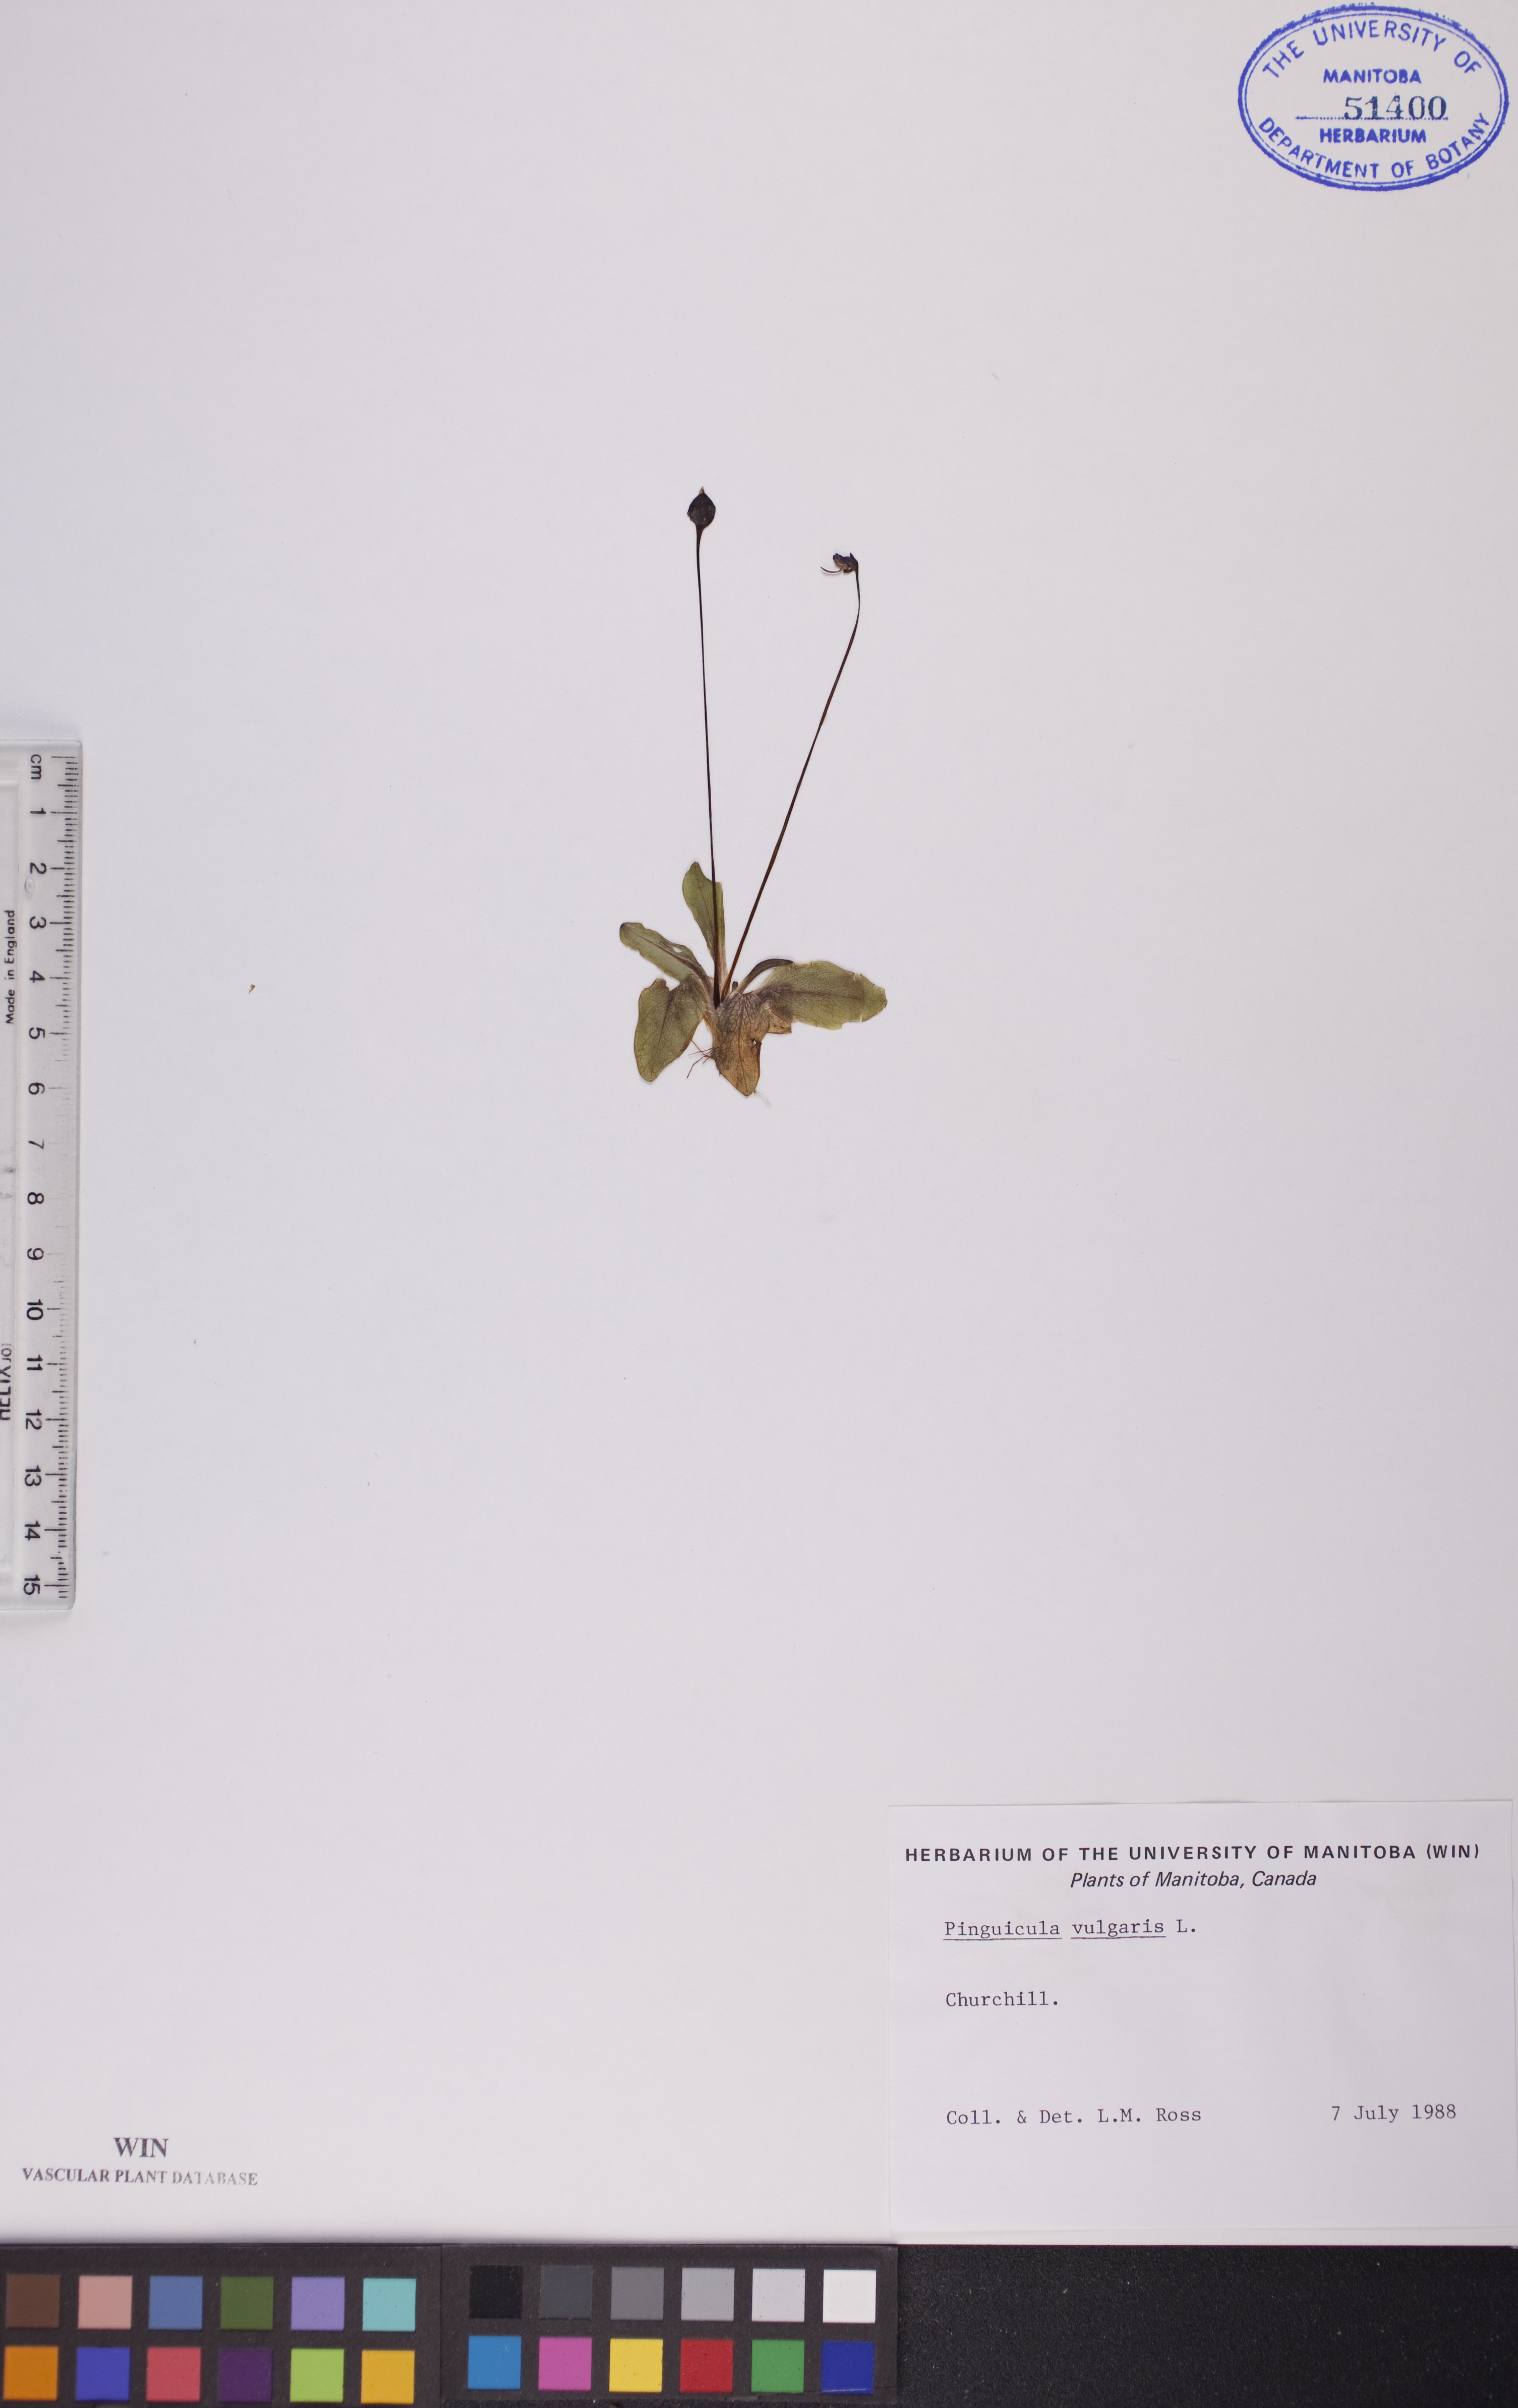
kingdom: Plantae
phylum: Tracheophyta
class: Magnoliopsida
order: Lamiales
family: Lentibulariaceae
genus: Pinguicula
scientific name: Pinguicula vulgaris
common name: Common butterwort
